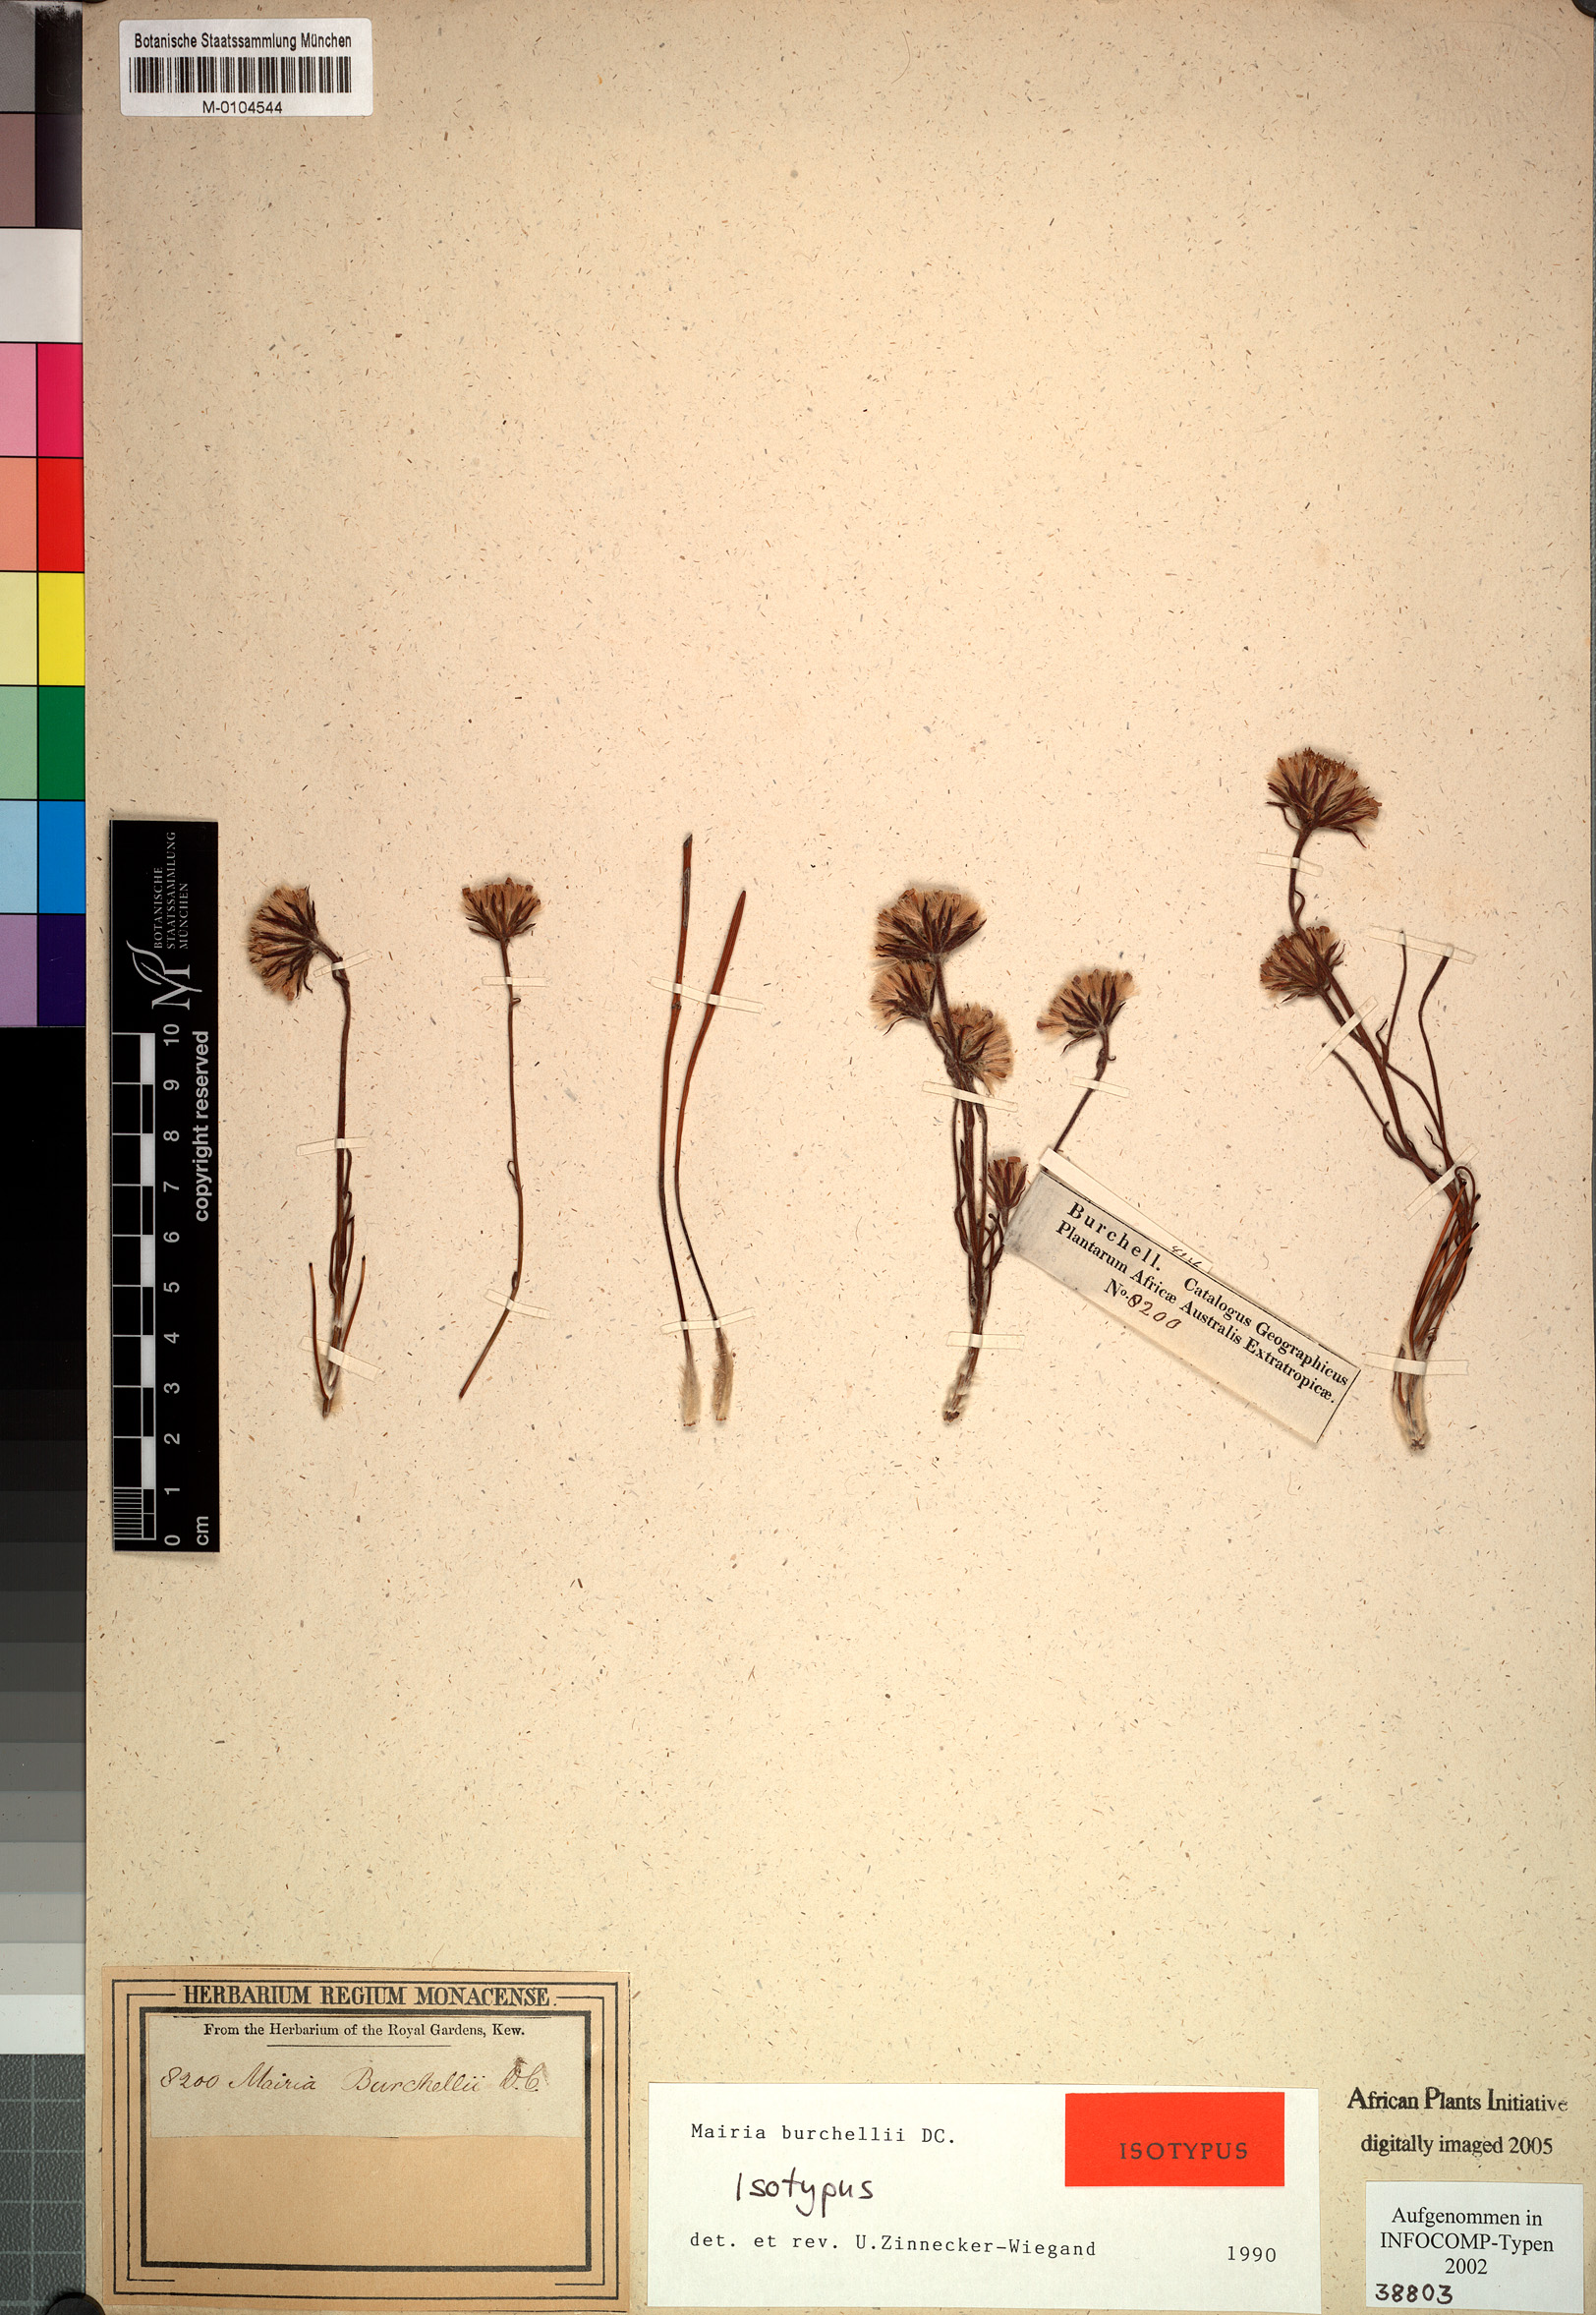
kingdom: Plantae
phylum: Tracheophyta
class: Magnoliopsida
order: Asterales
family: Asteraceae
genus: Zyrphelis
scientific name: Zyrphelis burchellii
